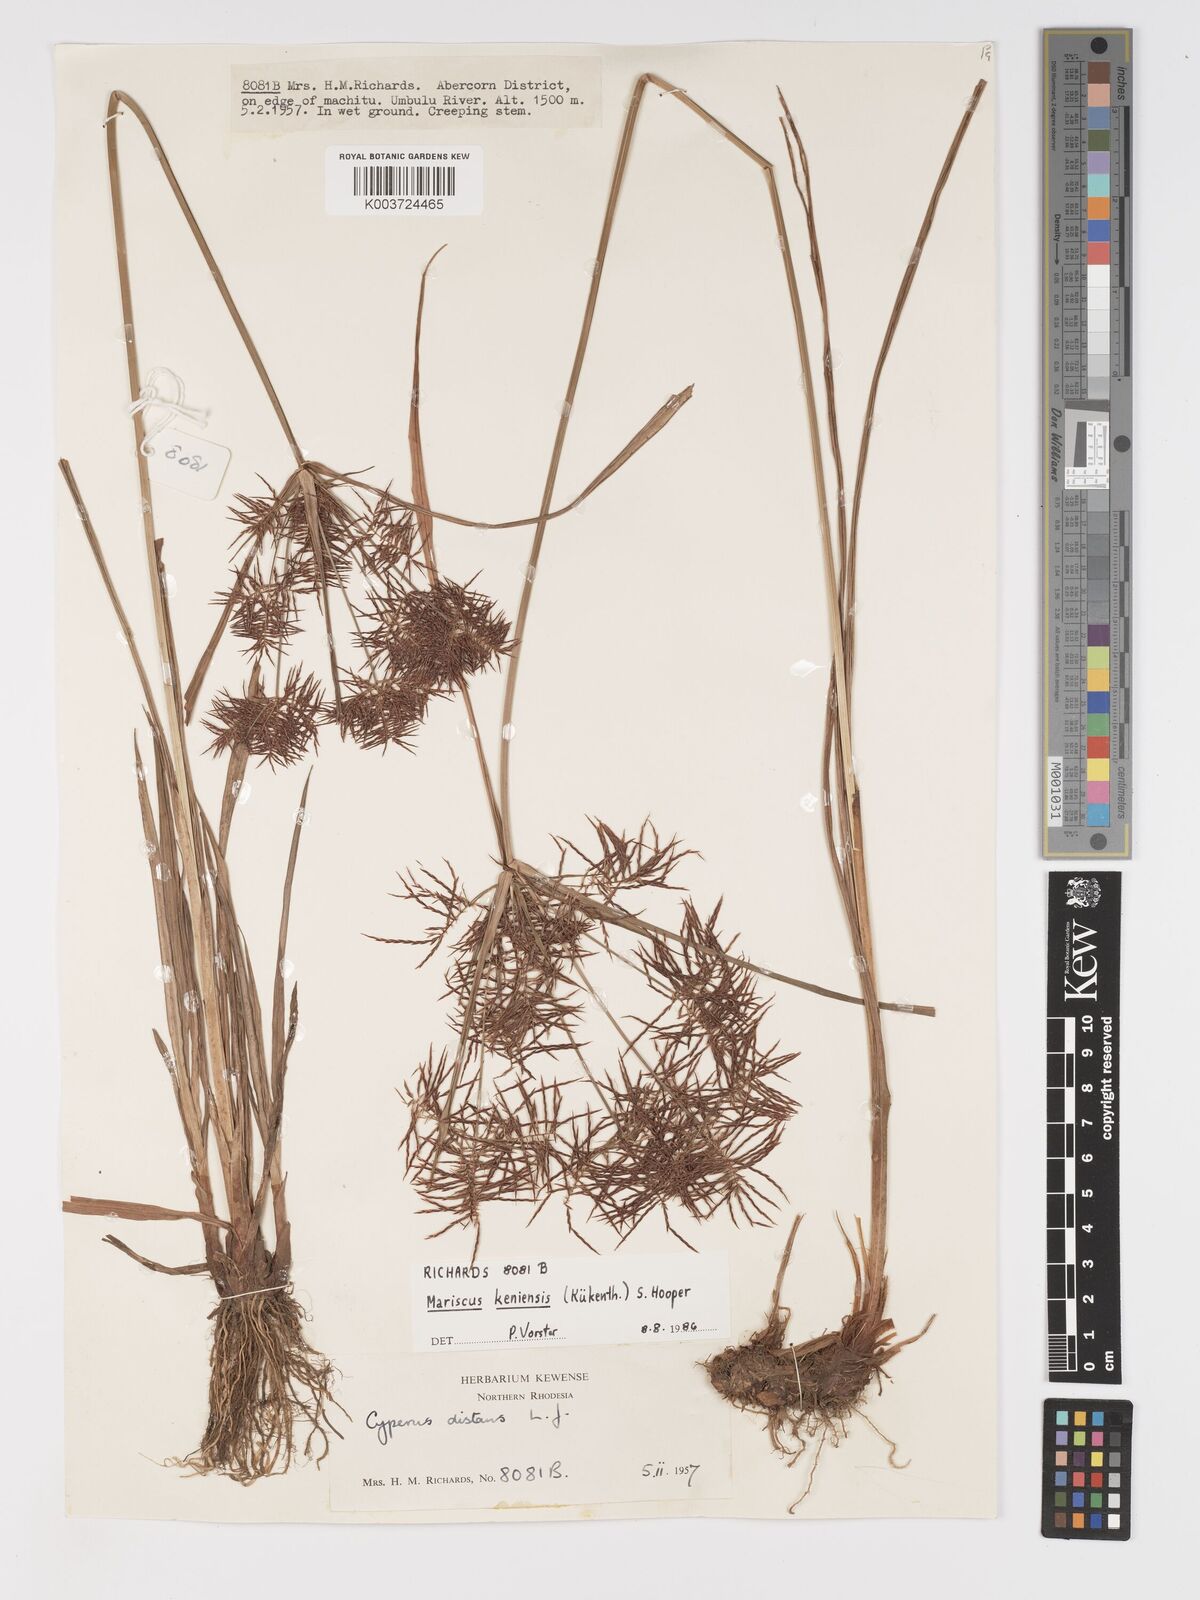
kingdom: Plantae
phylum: Tracheophyta
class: Liliopsida
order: Poales
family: Cyperaceae
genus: Cyperus
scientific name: Cyperus
